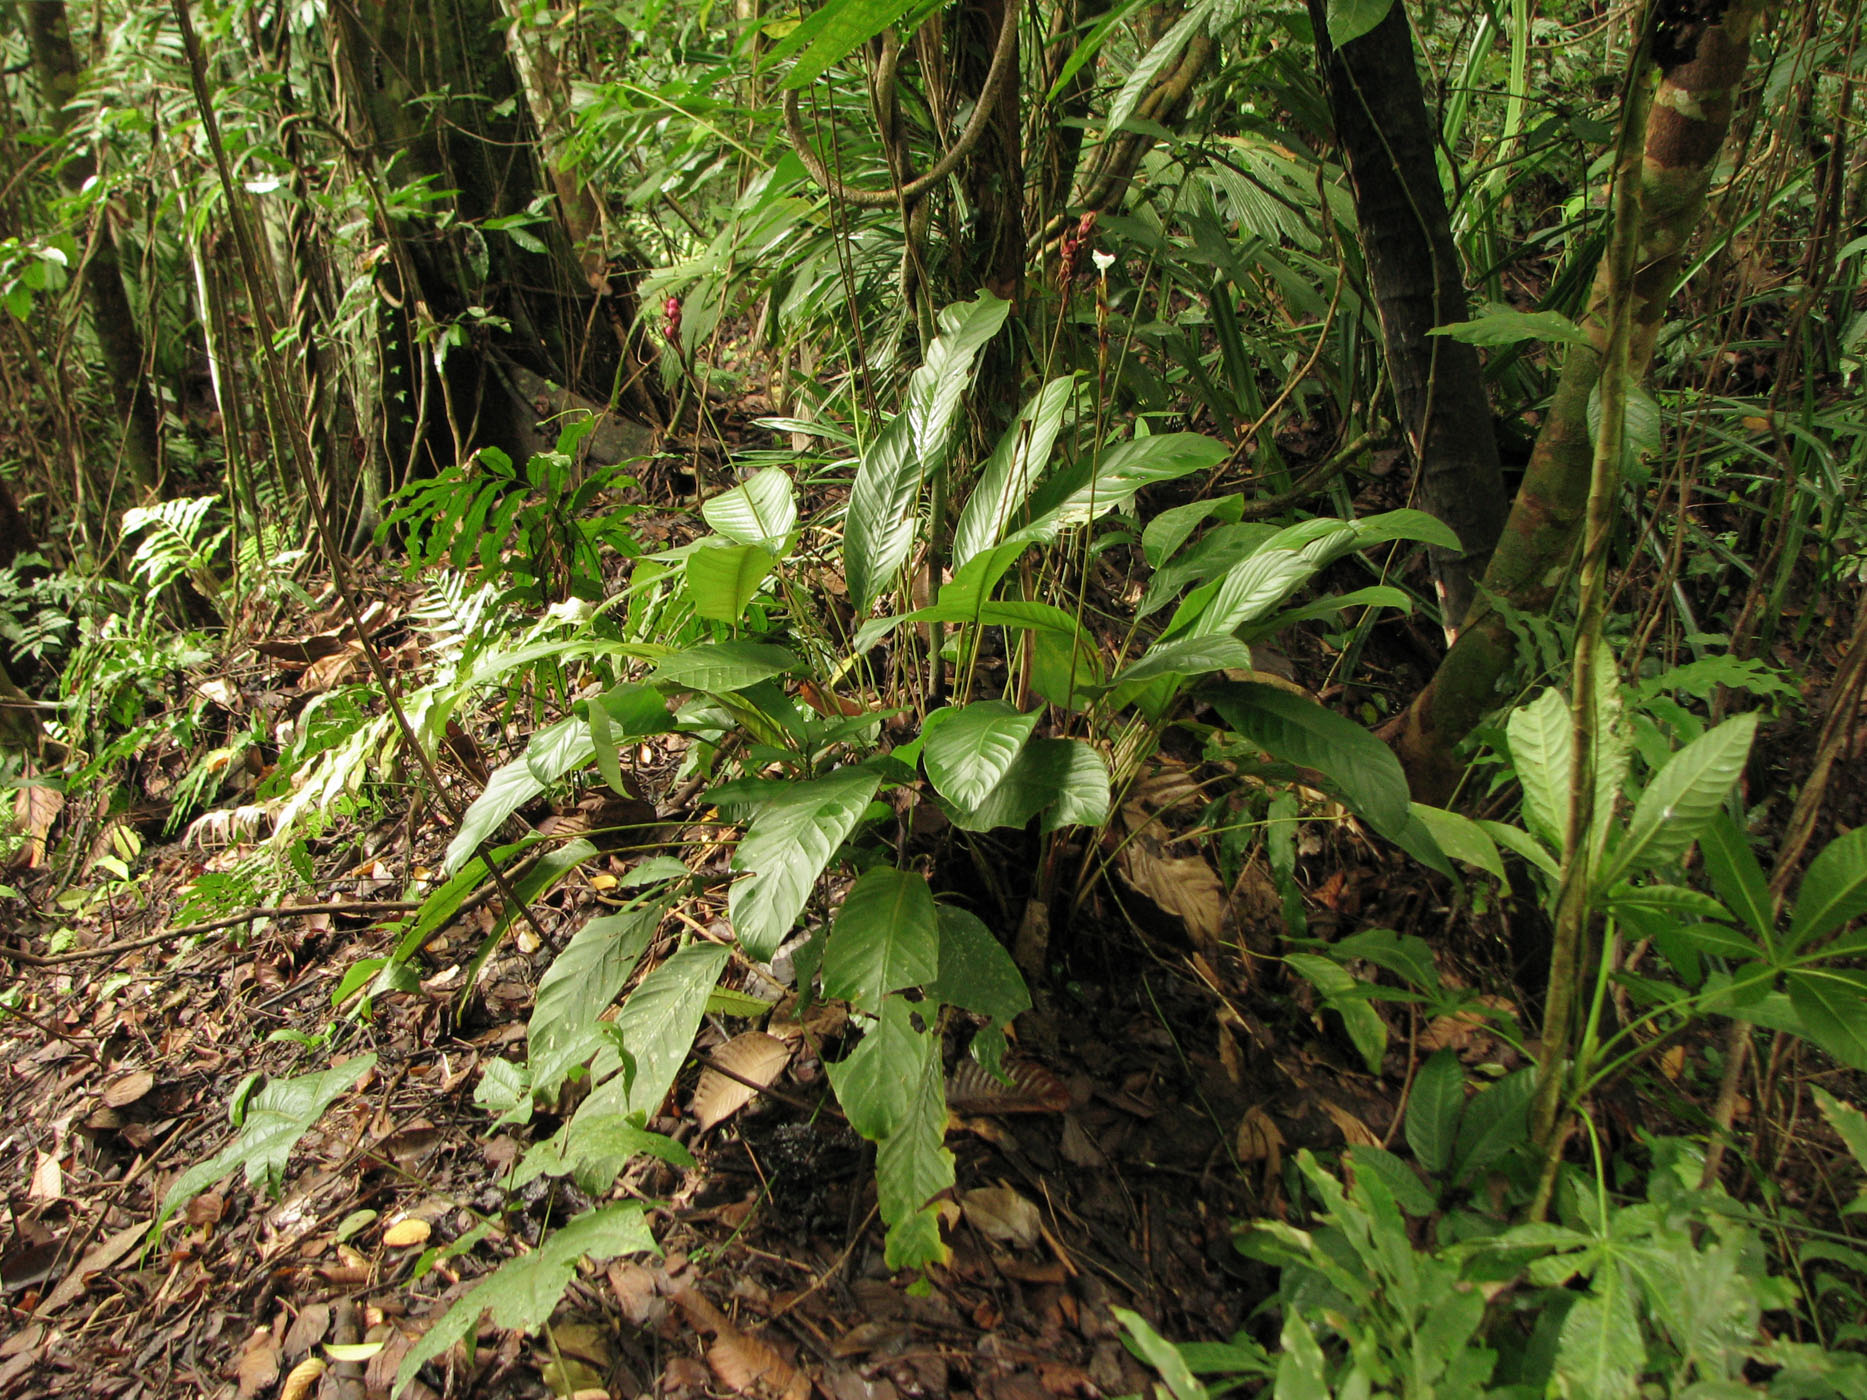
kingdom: Plantae
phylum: Tracheophyta
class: Liliopsida
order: Zingiberales
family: Marantaceae
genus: Phrynium
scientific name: Phrynium macrocephalum
